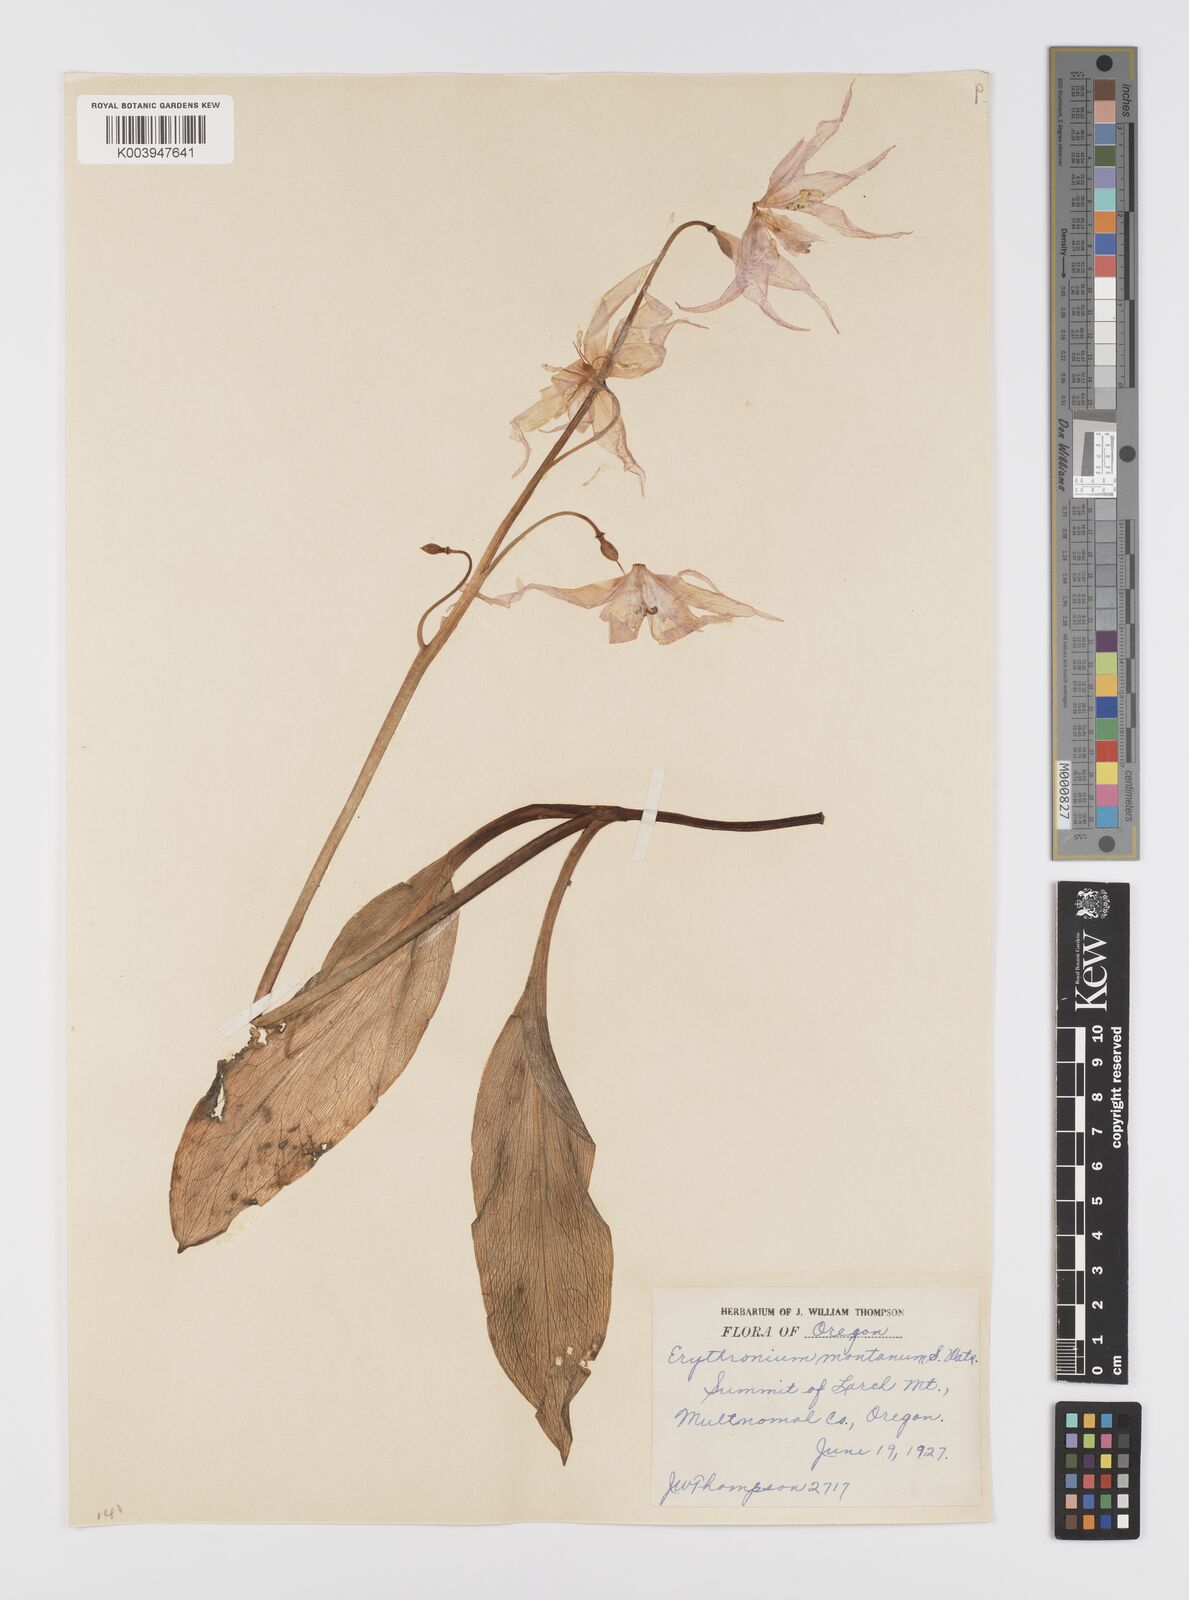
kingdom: Plantae
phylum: Tracheophyta
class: Liliopsida
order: Liliales
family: Liliaceae
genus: Erythronium
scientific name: Erythronium montanum
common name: Avalanche lily
